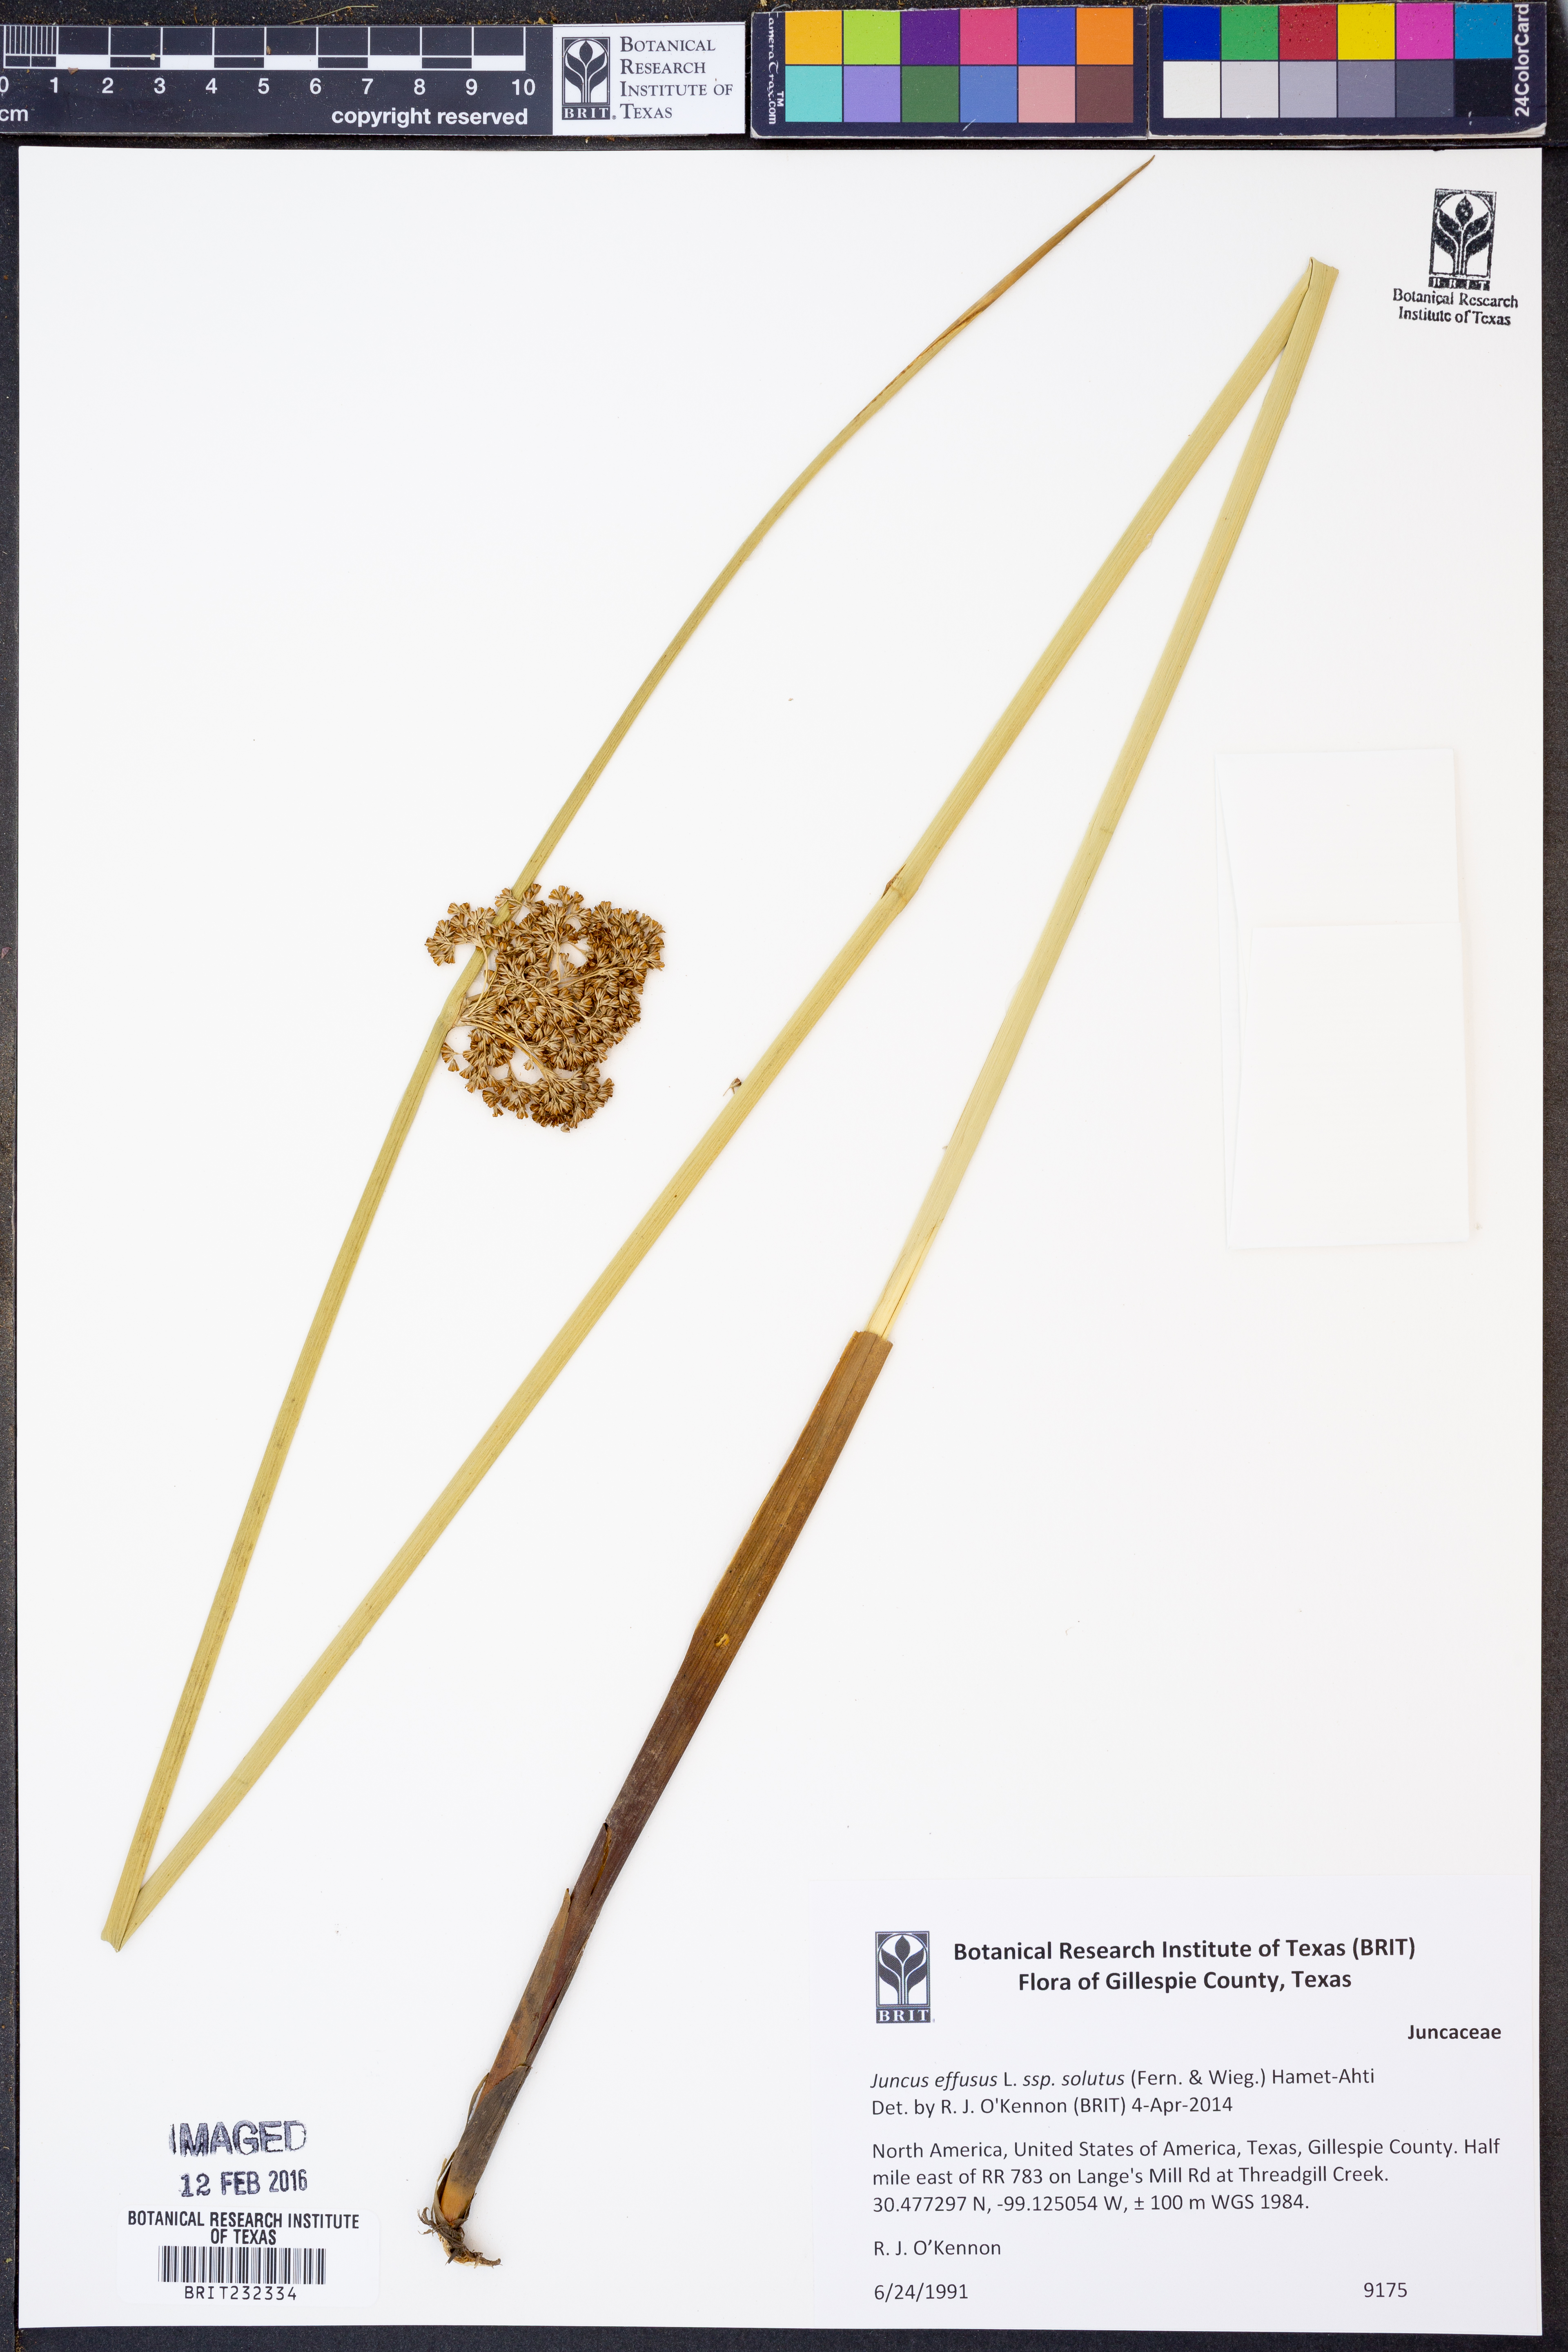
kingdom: Plantae
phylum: Tracheophyta
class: Liliopsida
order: Poales
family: Juncaceae
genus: Juncus
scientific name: Juncus effusus
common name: Soft rush
